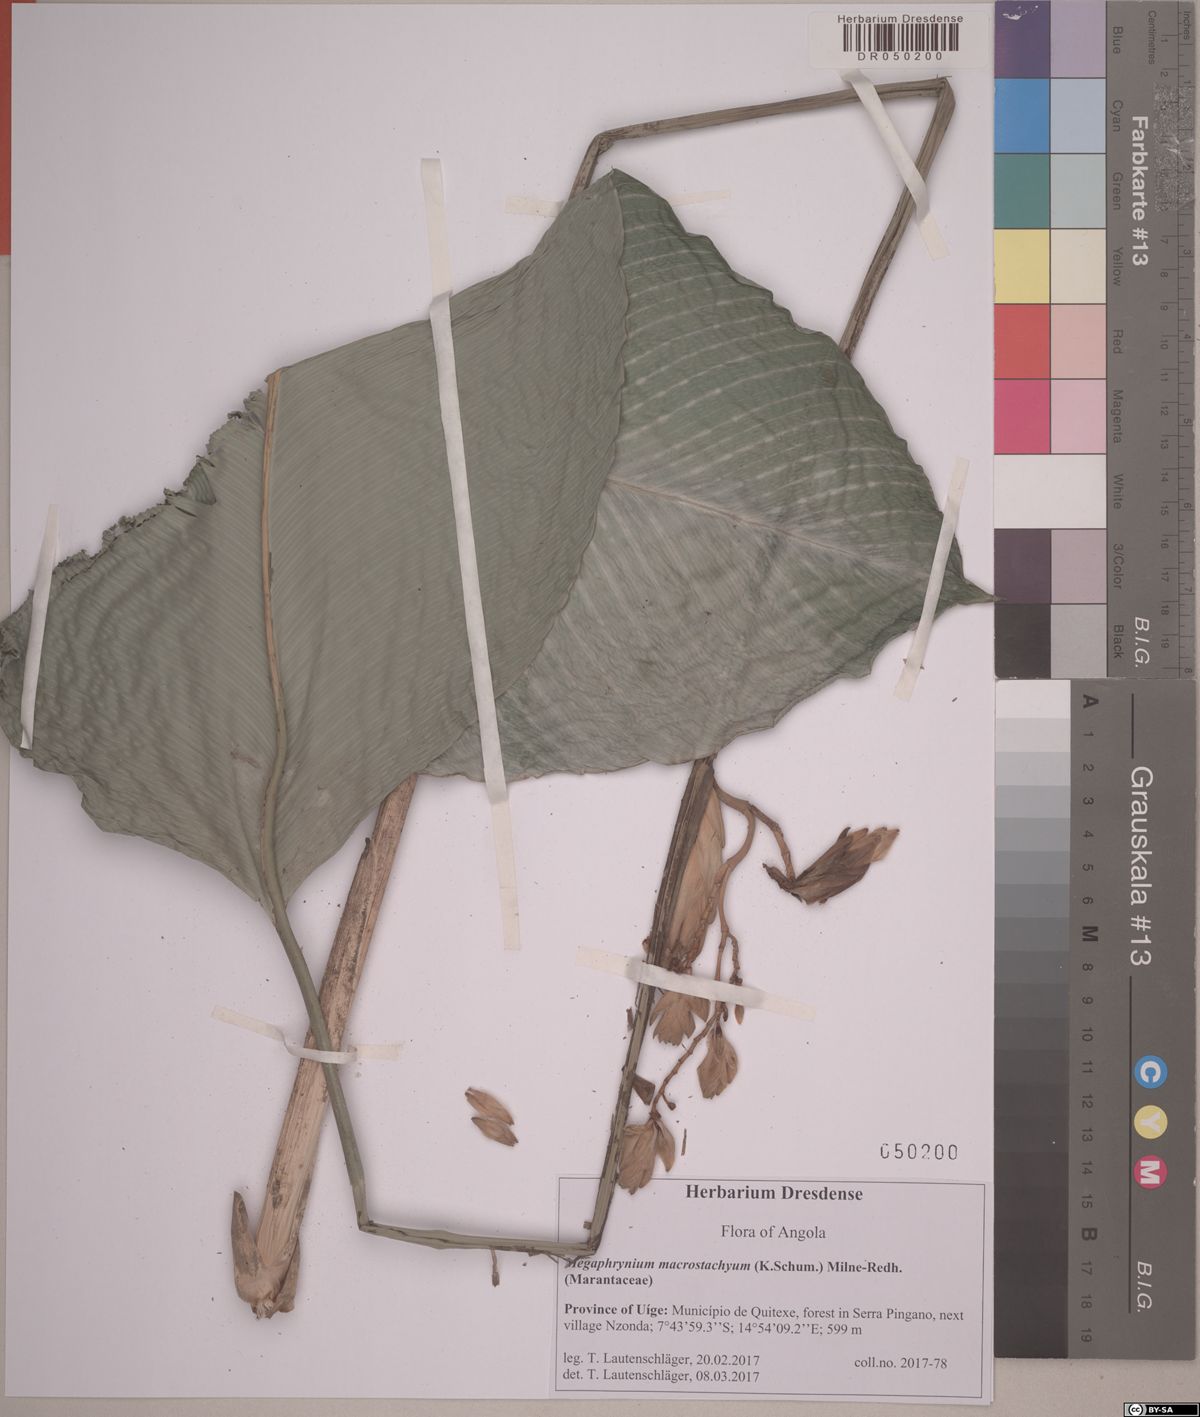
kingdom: Plantae
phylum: Tracheophyta
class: Liliopsida
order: Zingiberales
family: Marantaceae
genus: Megaphrynium
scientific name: Megaphrynium macrostachyum
